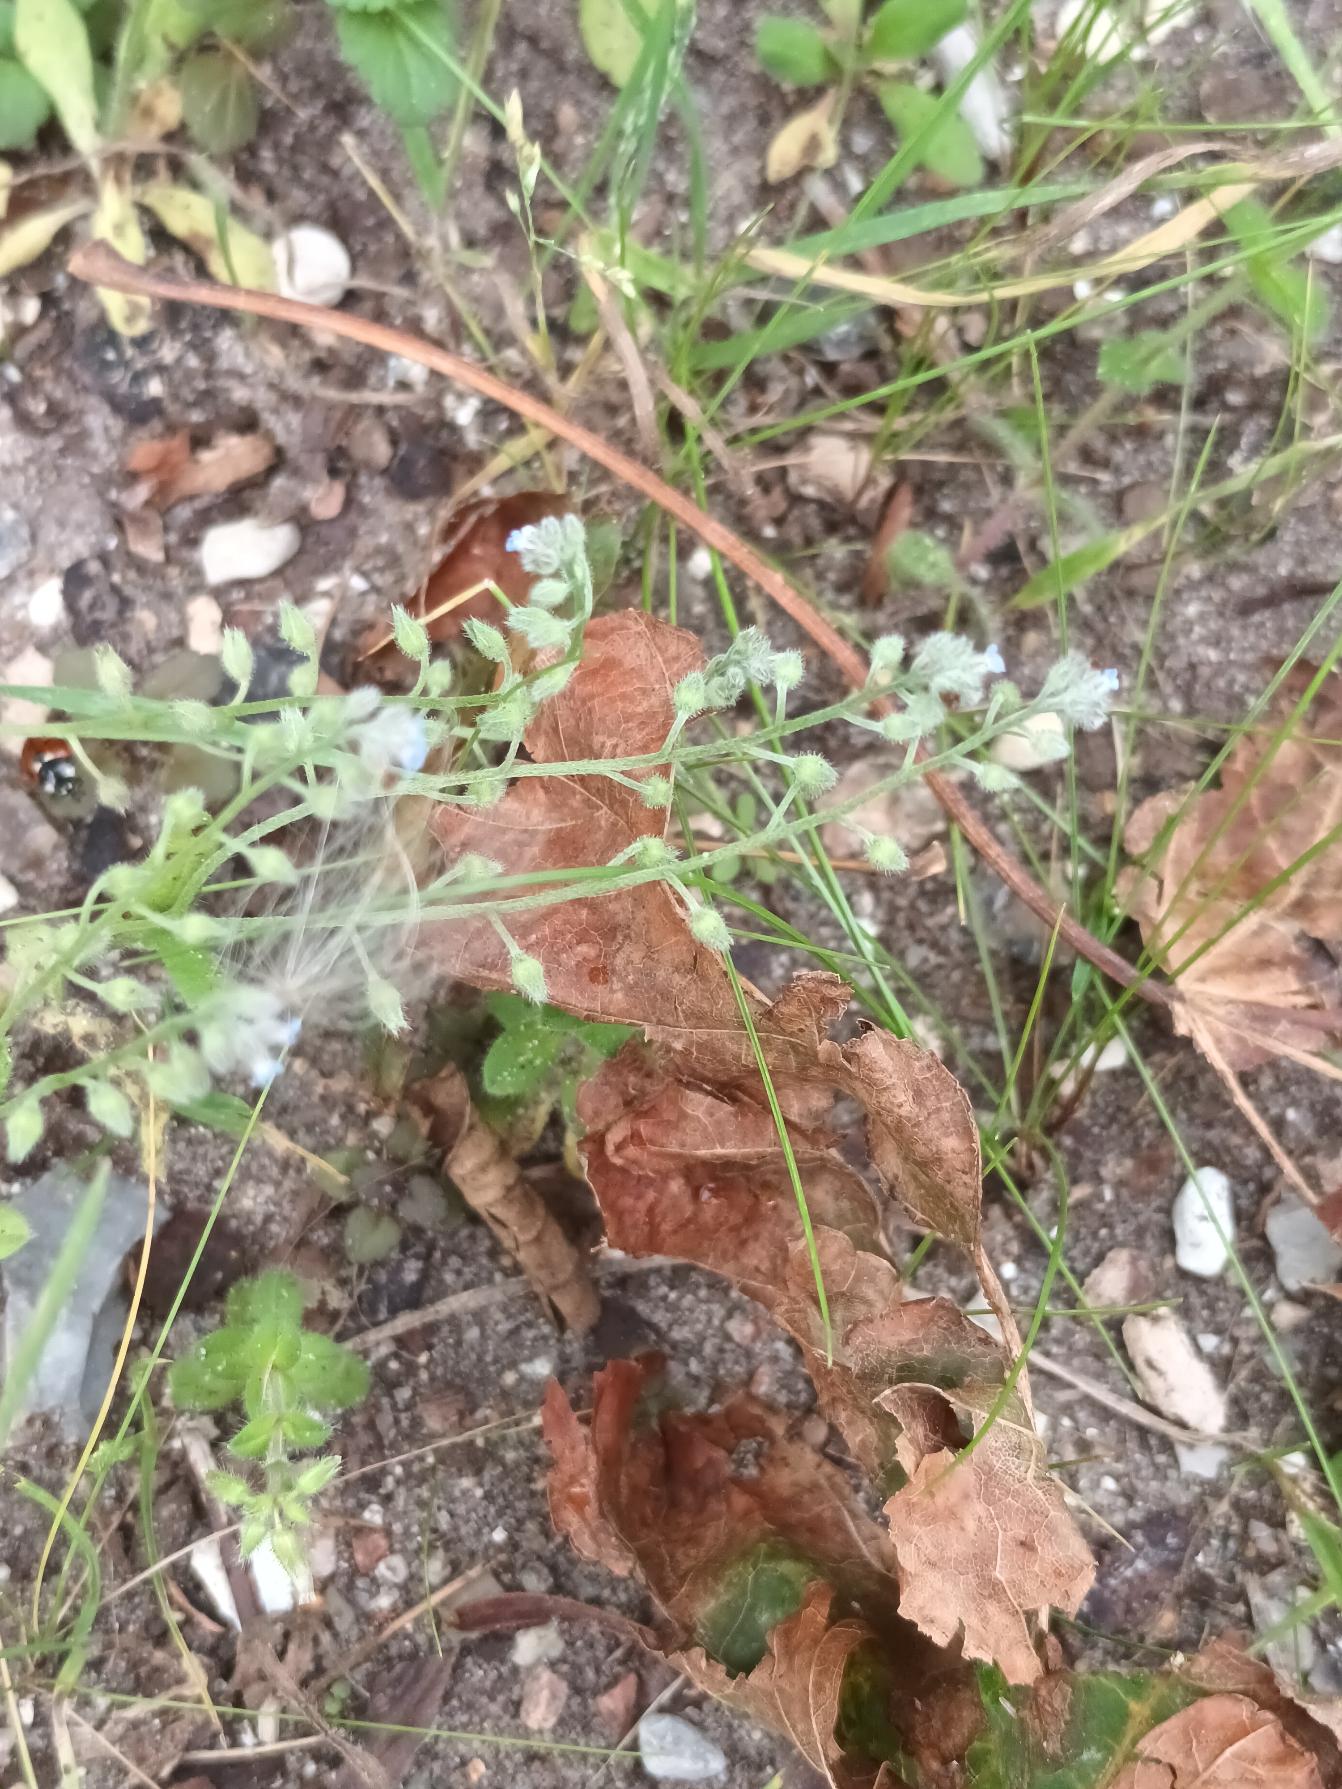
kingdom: Plantae
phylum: Tracheophyta
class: Magnoliopsida
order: Boraginales
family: Boraginaceae
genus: Myosotis
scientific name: Myosotis arvensis
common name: Mark-forglemmigej
